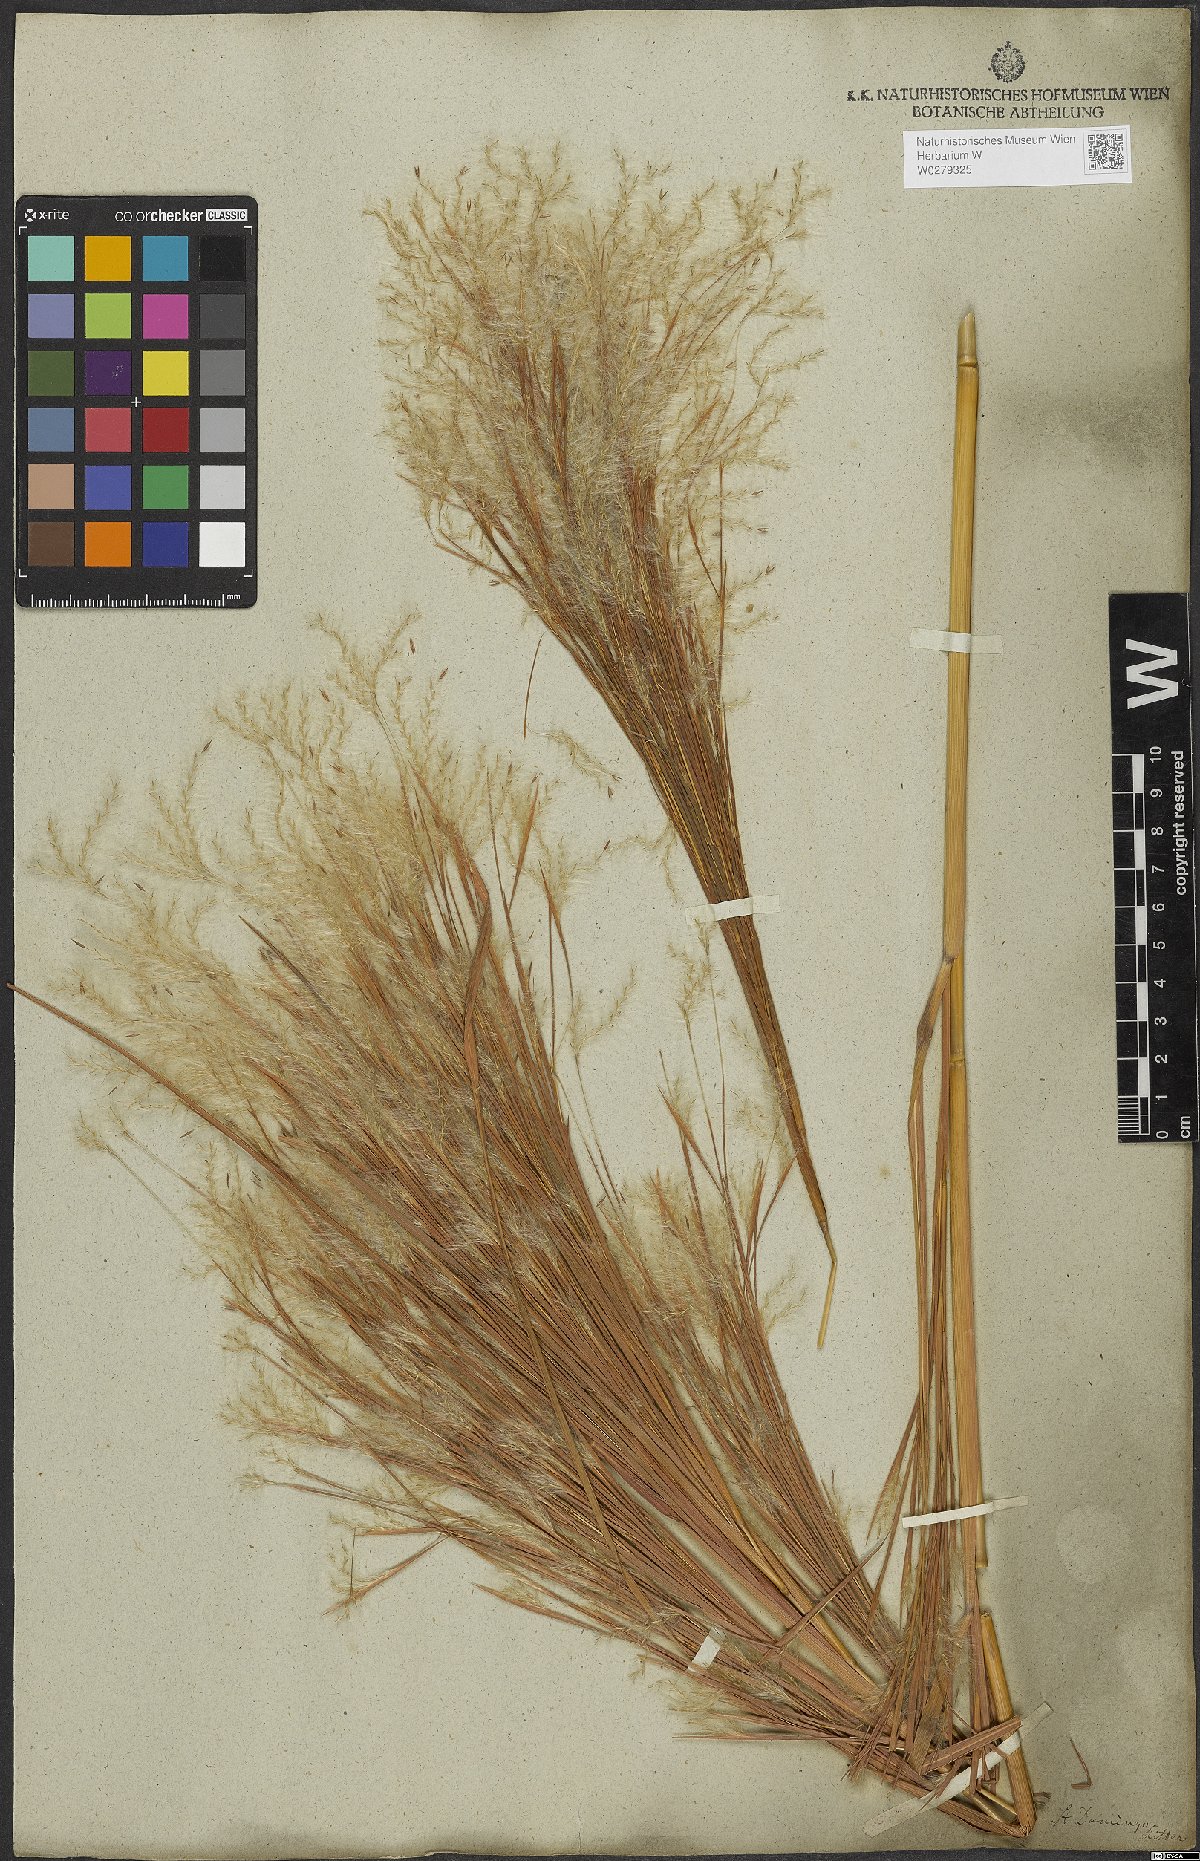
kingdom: Plantae
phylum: Tracheophyta
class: Liliopsida
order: Poales
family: Poaceae
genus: Andropogon
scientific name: Andropogon bicornis
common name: West indian foxtail grass
